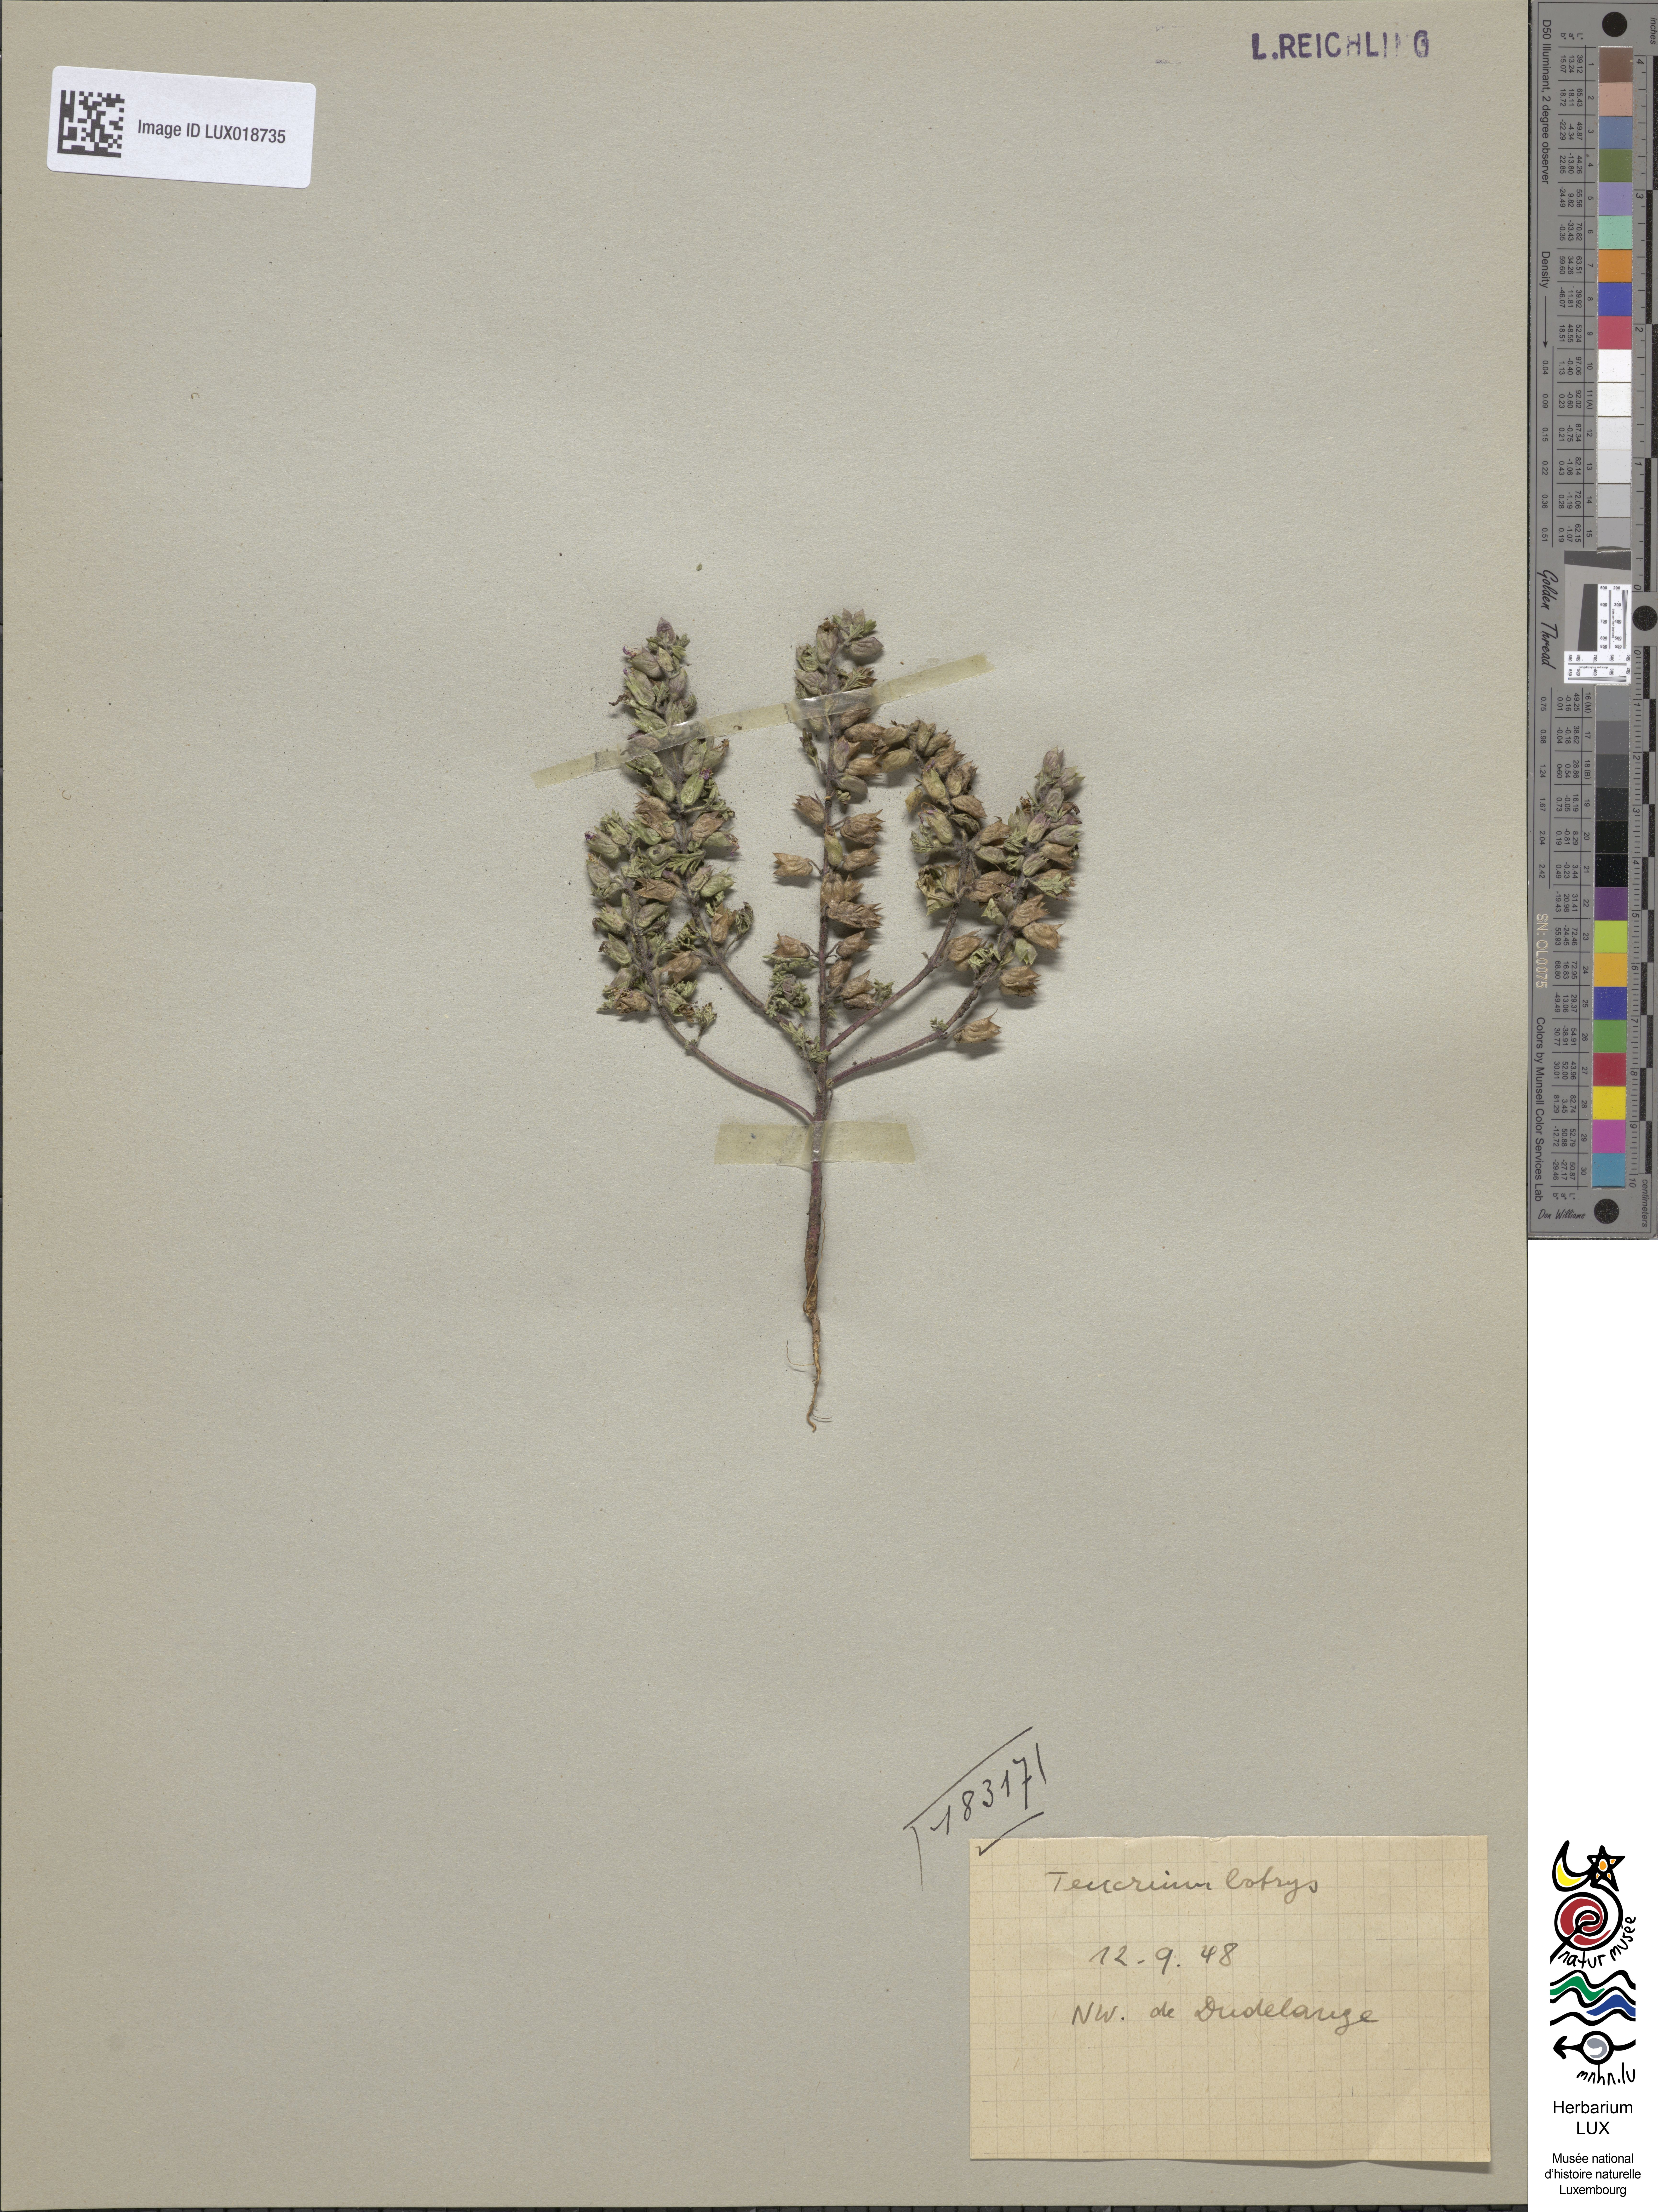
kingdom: Plantae
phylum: Tracheophyta
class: Magnoliopsida
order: Lamiales
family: Lamiaceae
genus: Teucrium
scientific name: Teucrium botrys
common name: Cut-leaved germander
